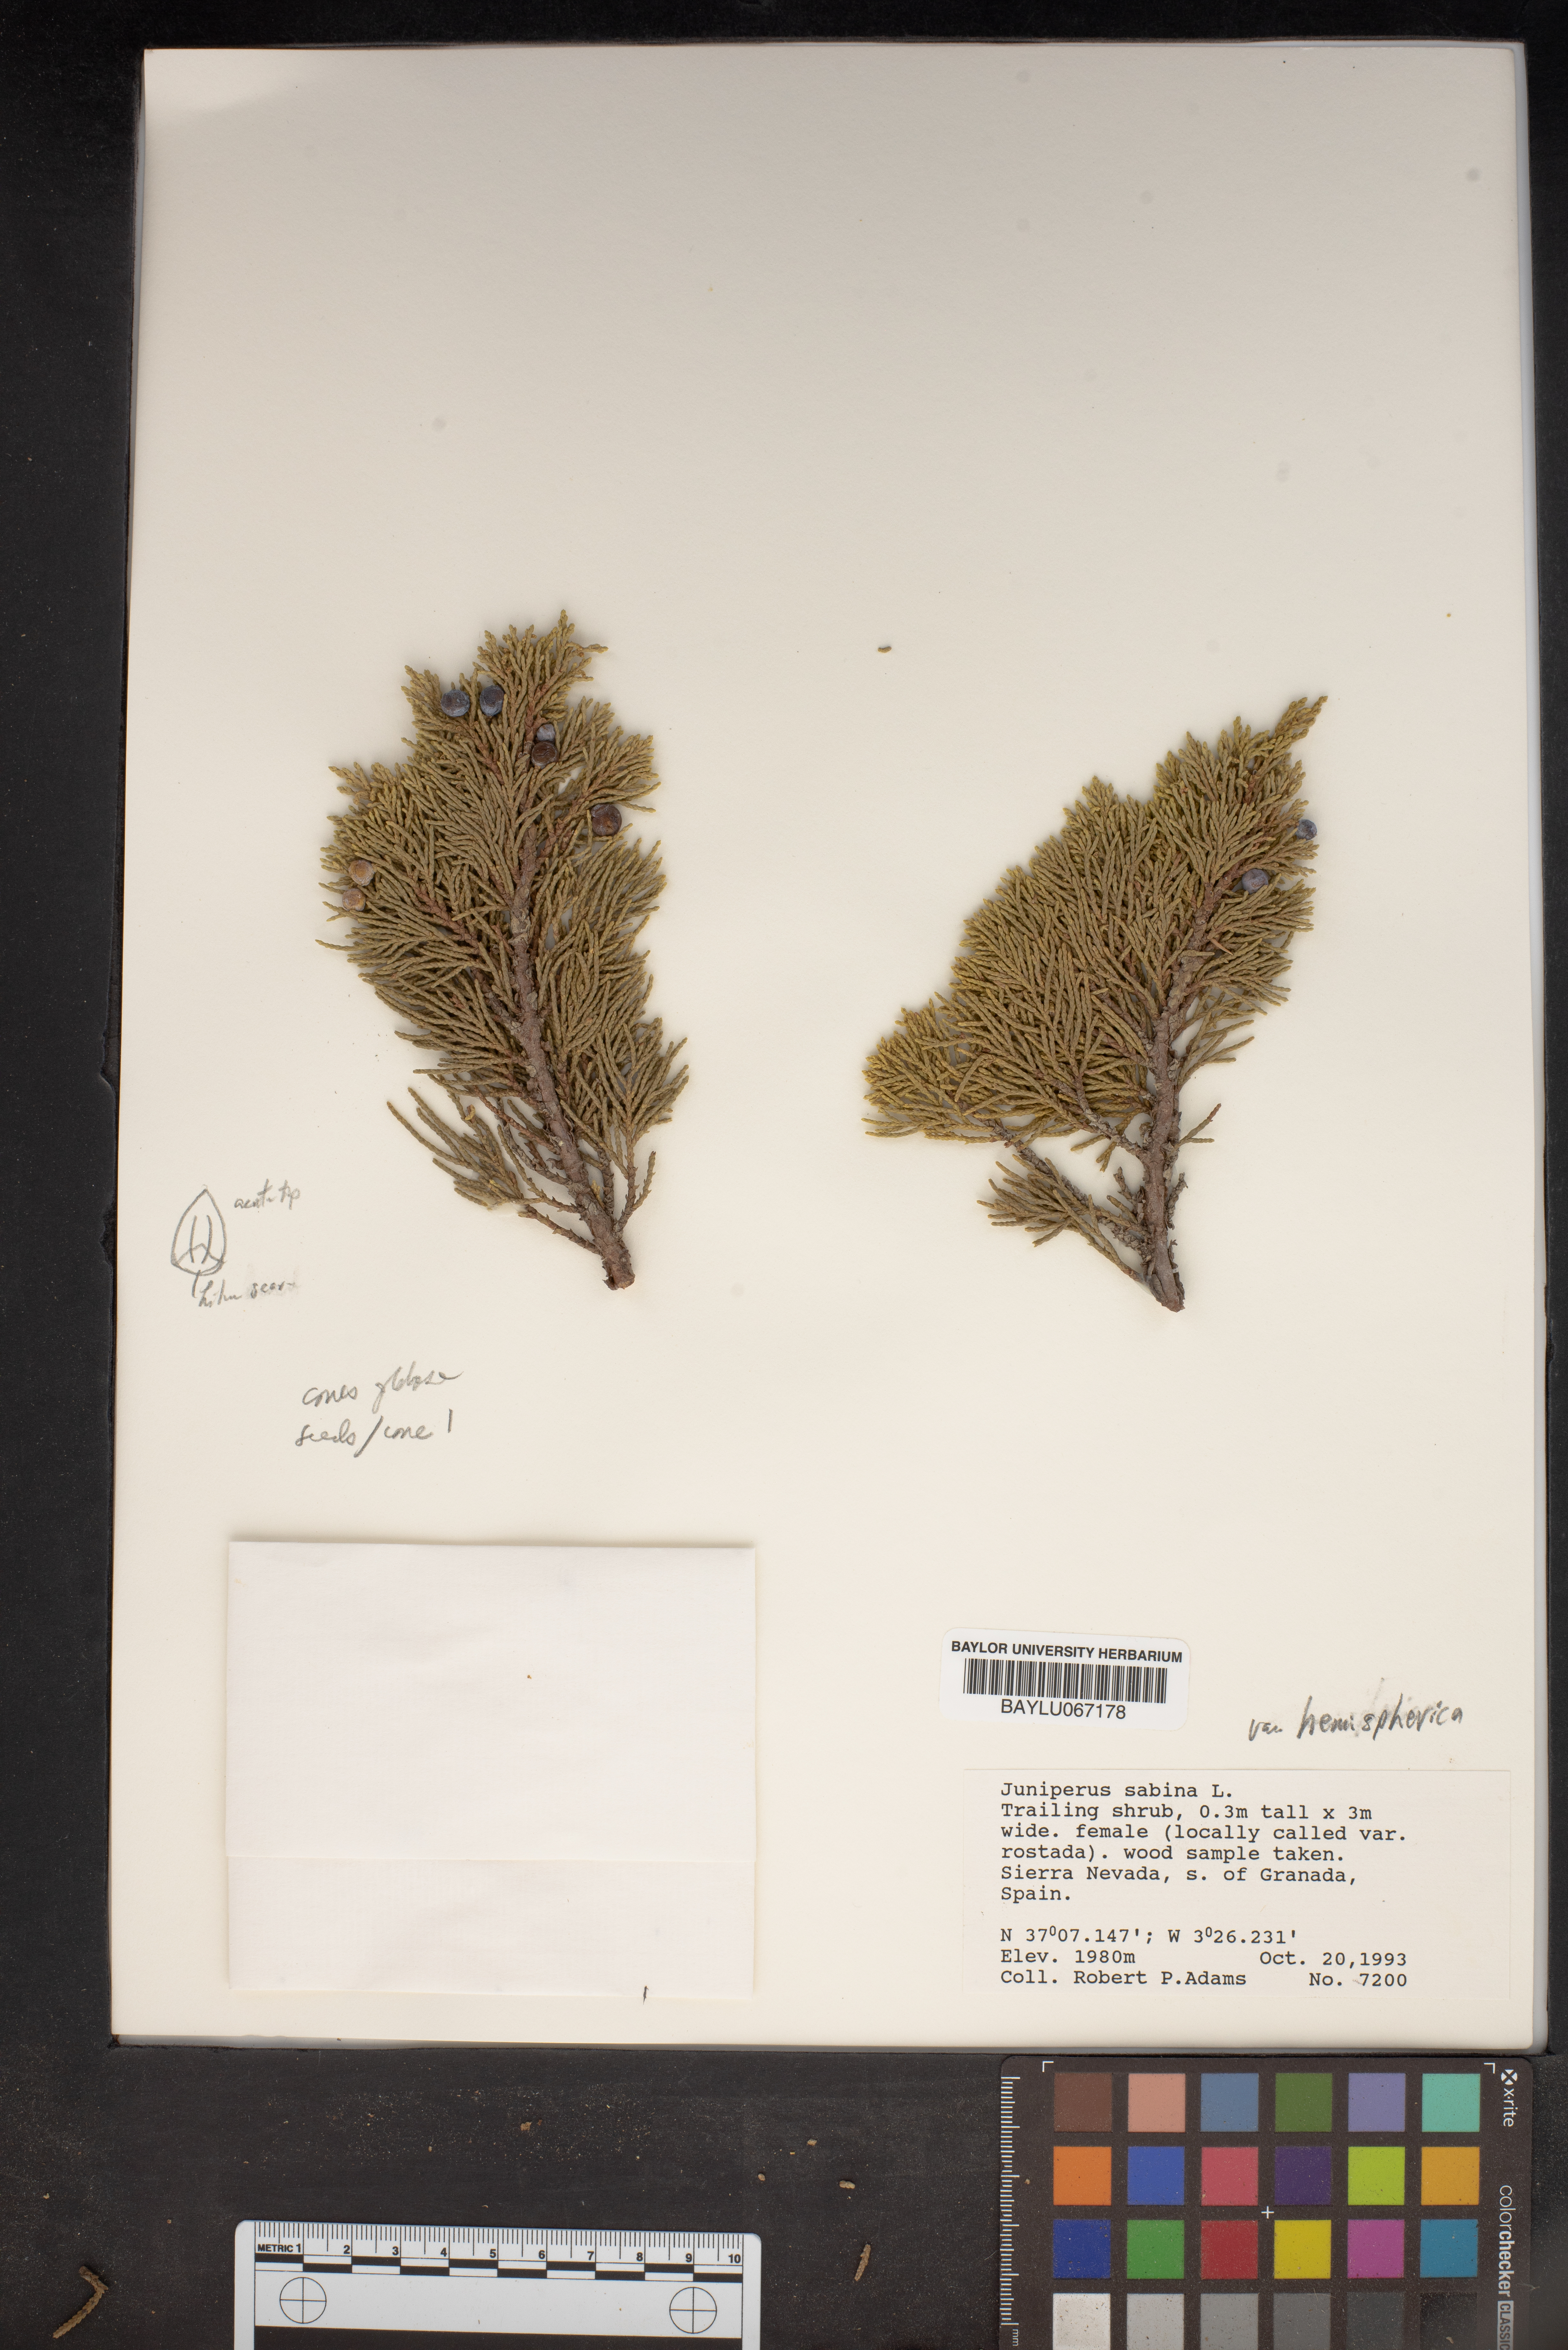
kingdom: Plantae
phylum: Tracheophyta
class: Pinopsida
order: Pinales
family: Cupressaceae
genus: Juniperus
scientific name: Juniperus sabina
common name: Savin
